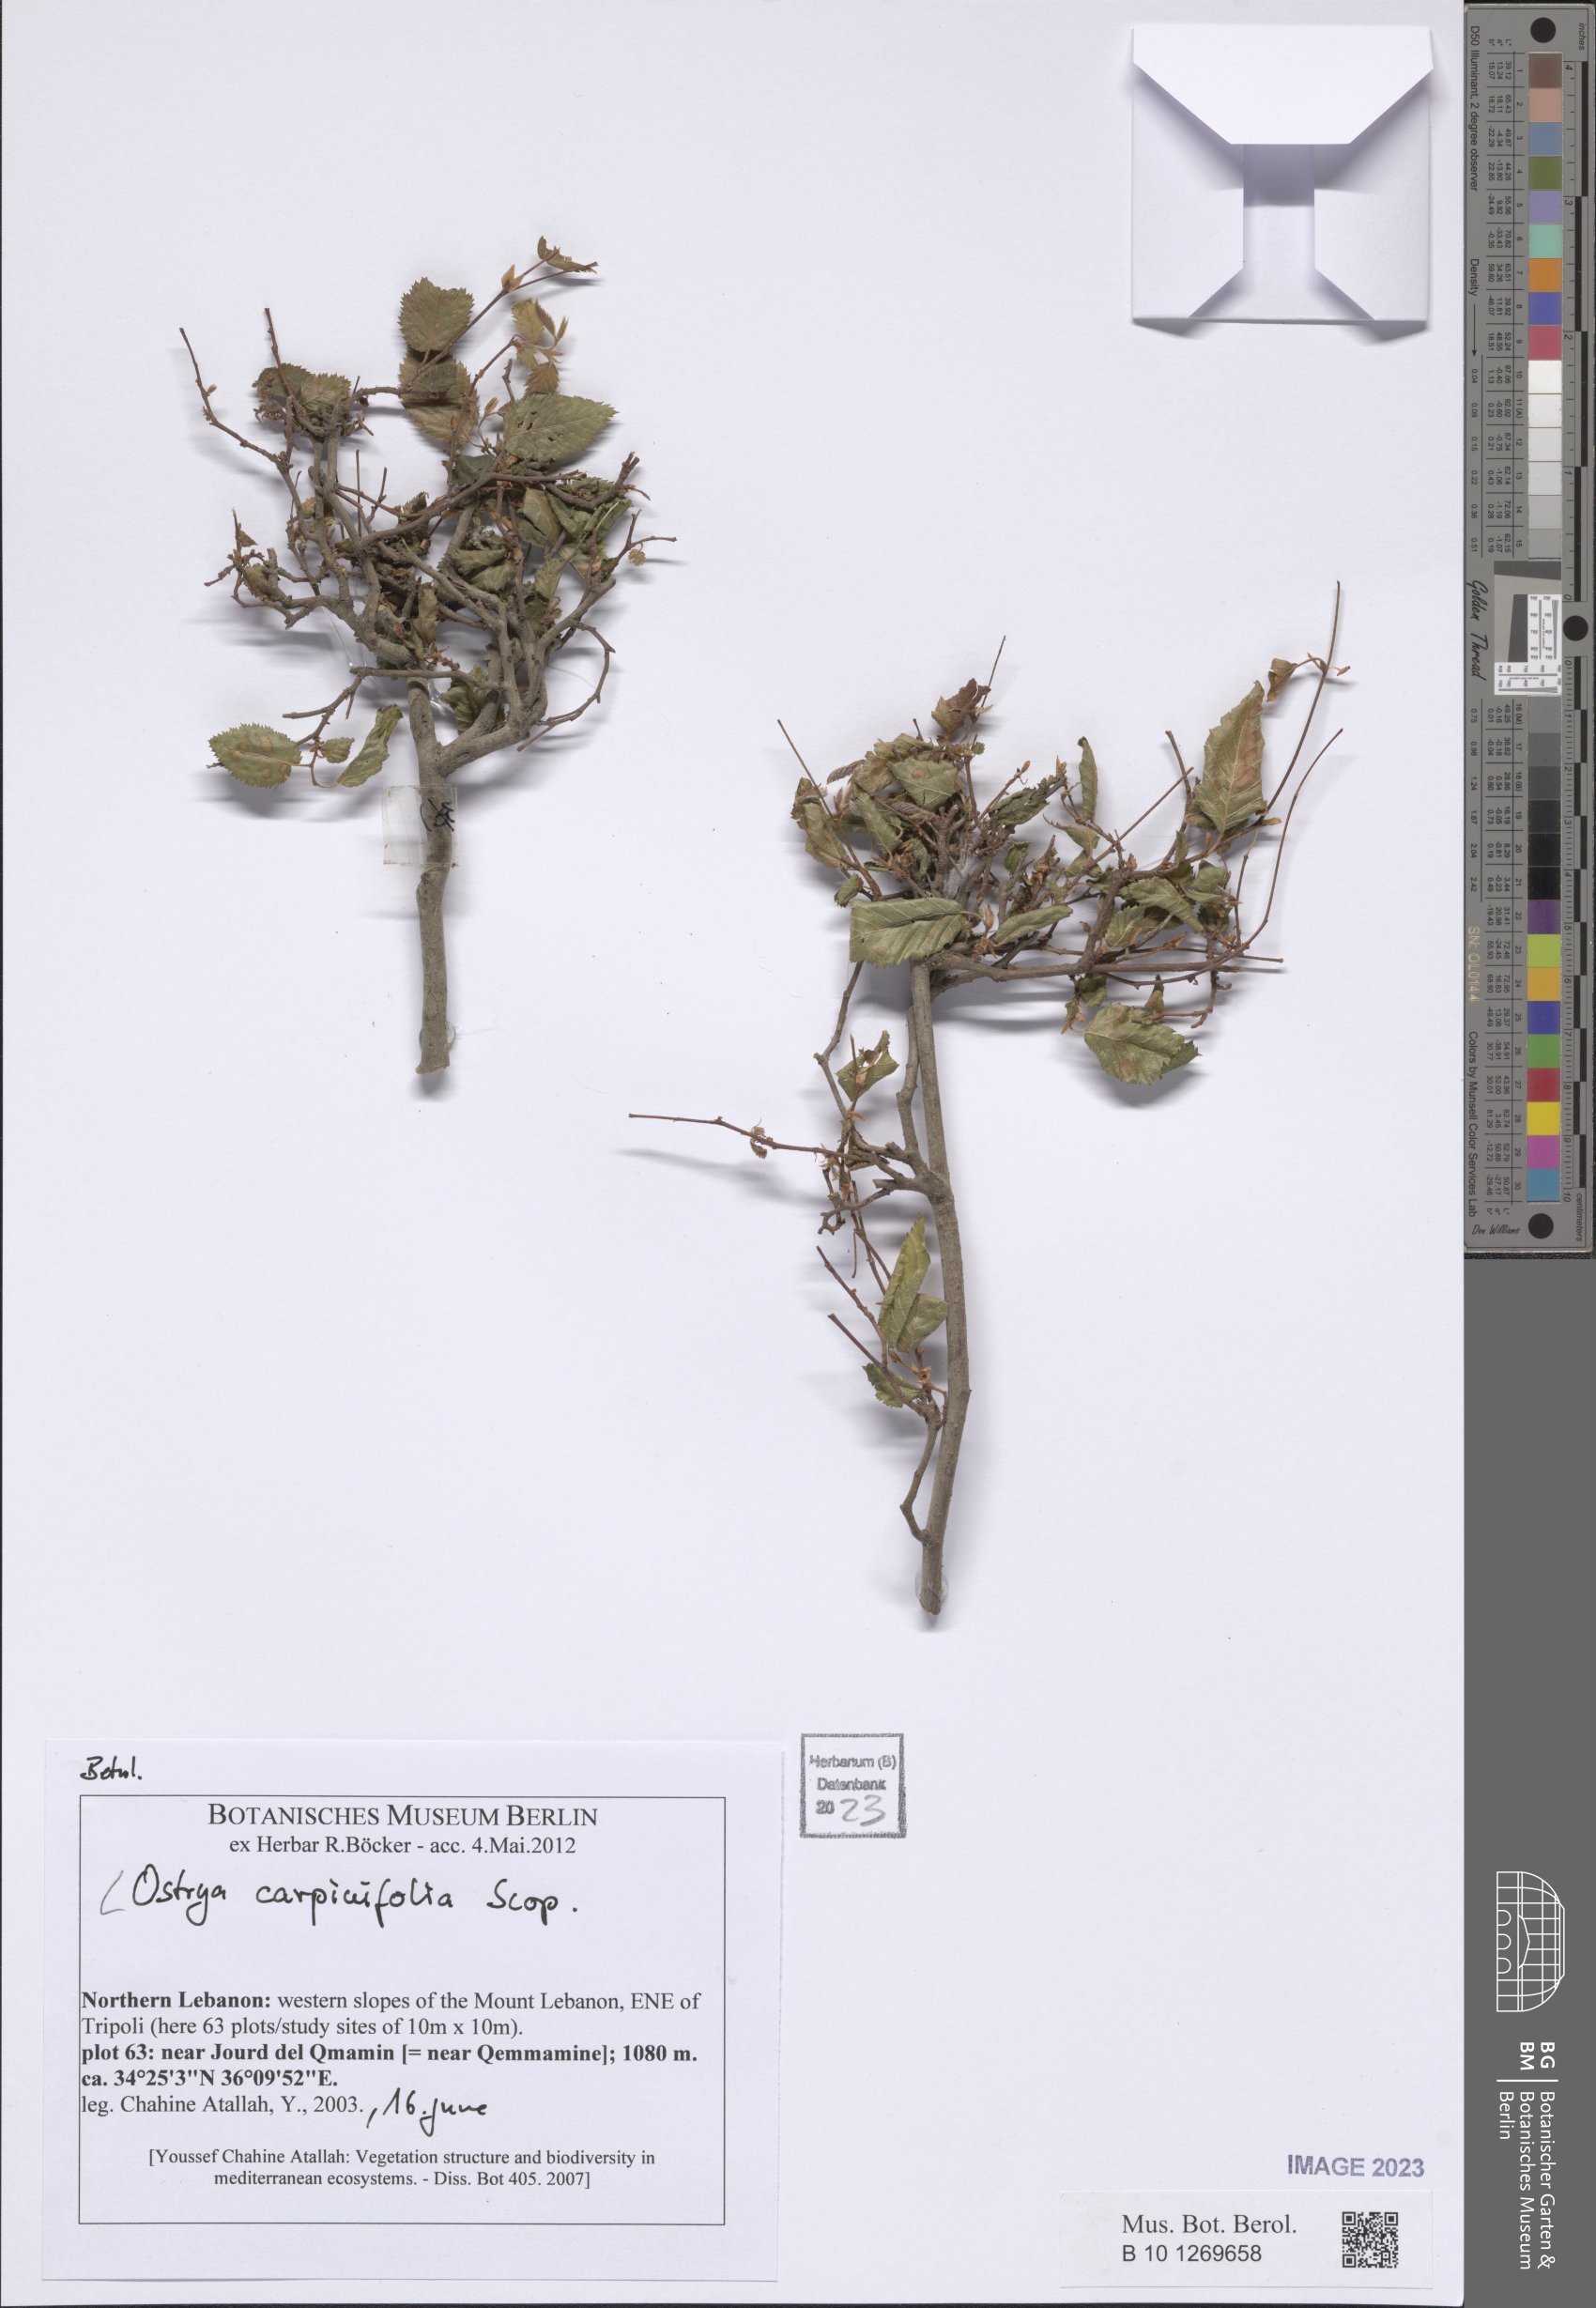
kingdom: Plantae
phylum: Tracheophyta
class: Magnoliopsida
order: Fagales
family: Betulaceae
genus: Ostrya
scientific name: Ostrya carpinifolia
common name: European hop-hornbeam
